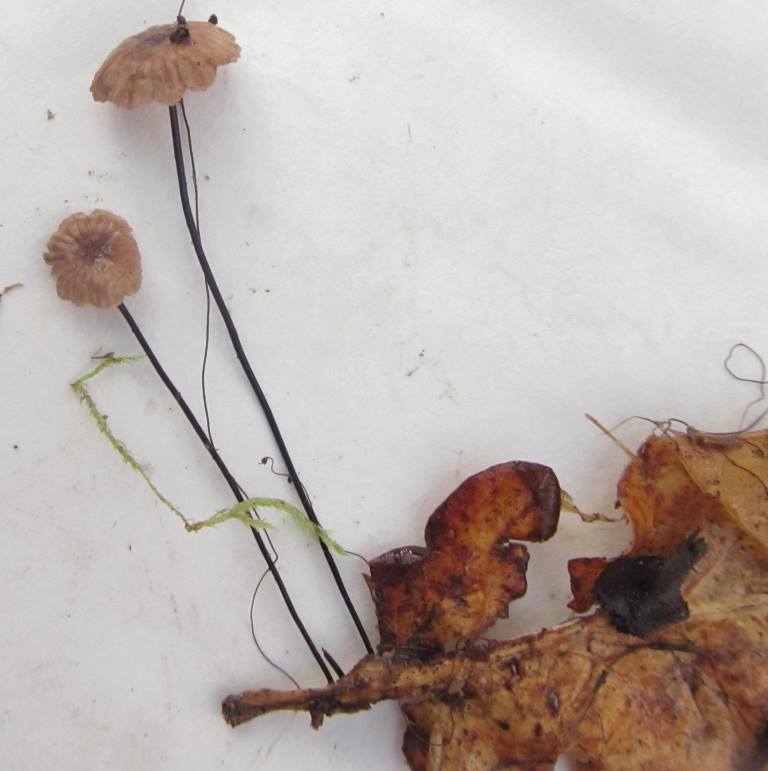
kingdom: Fungi
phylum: Basidiomycota
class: Agaricomycetes
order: Agaricales
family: Omphalotaceae
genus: Gymnopus
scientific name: Gymnopus androsaceus
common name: trådstokket fladhat
